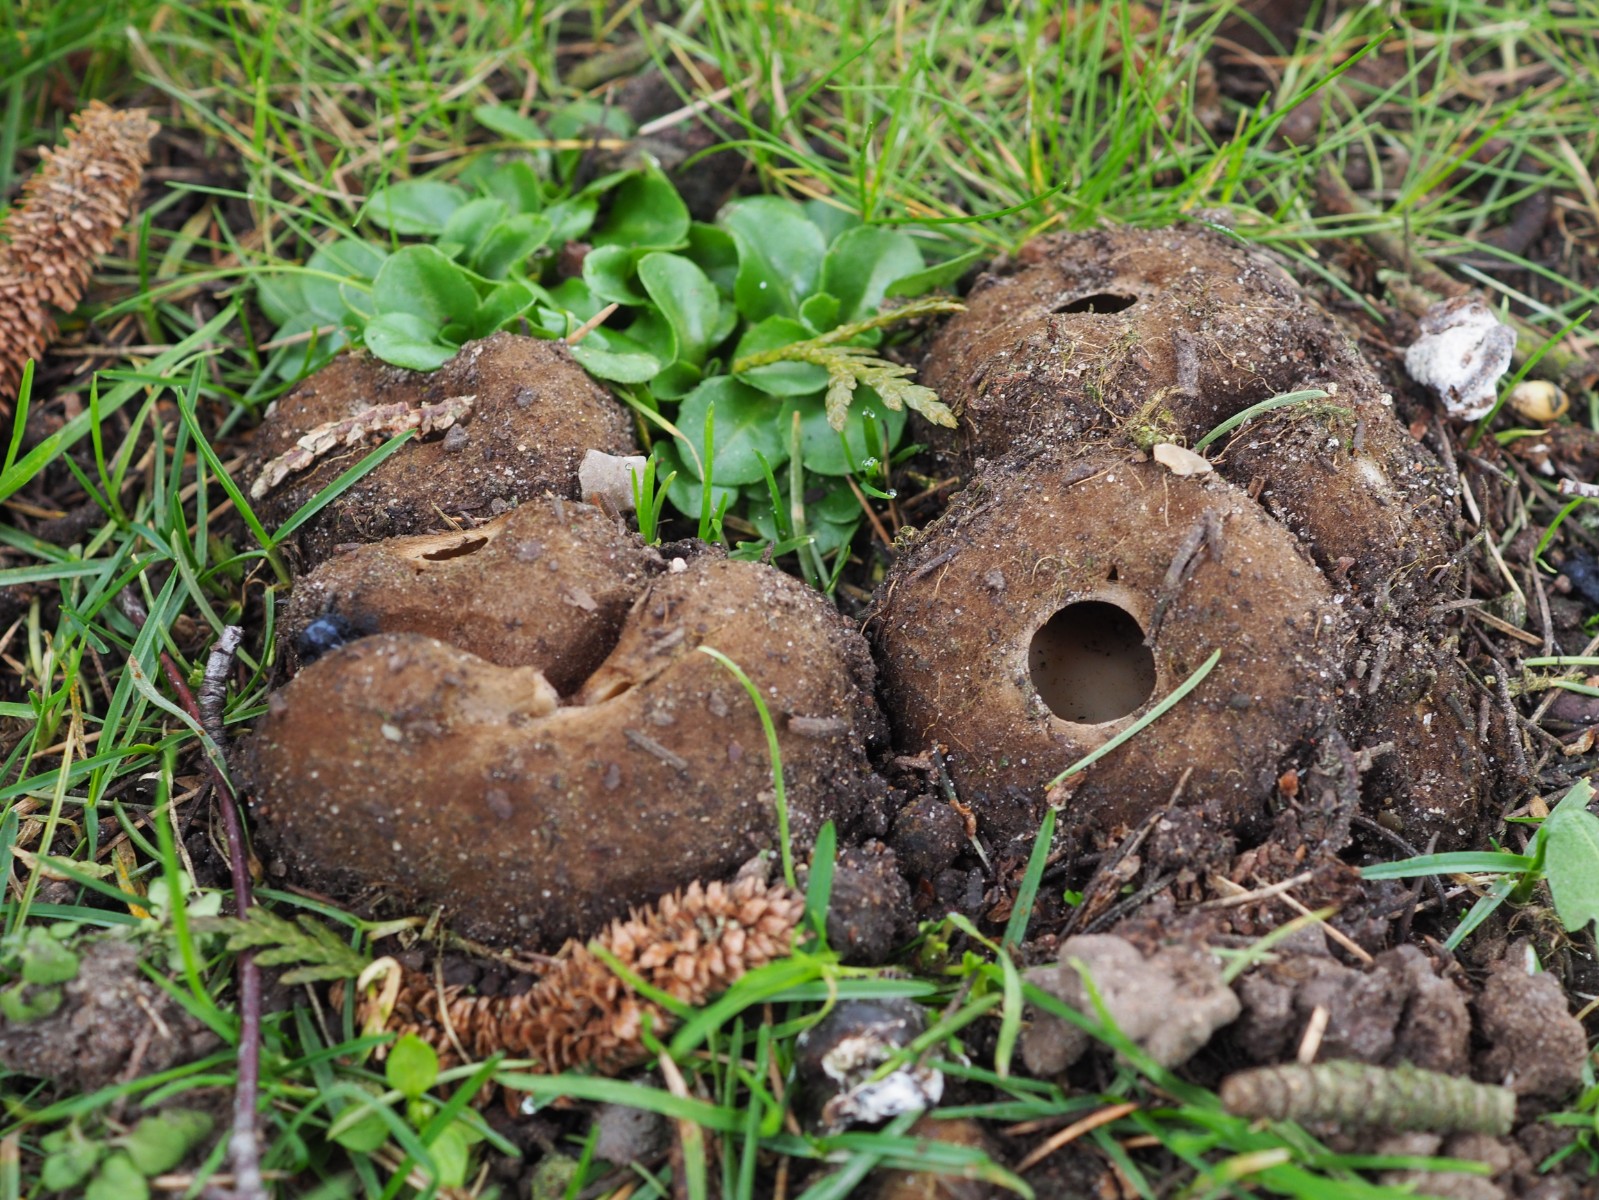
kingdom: Fungi
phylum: Ascomycota
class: Pezizomycetes
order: Pezizales
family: Pyronemataceae
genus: Geopora
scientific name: Geopora sumneriana
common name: vår-jordbæger
